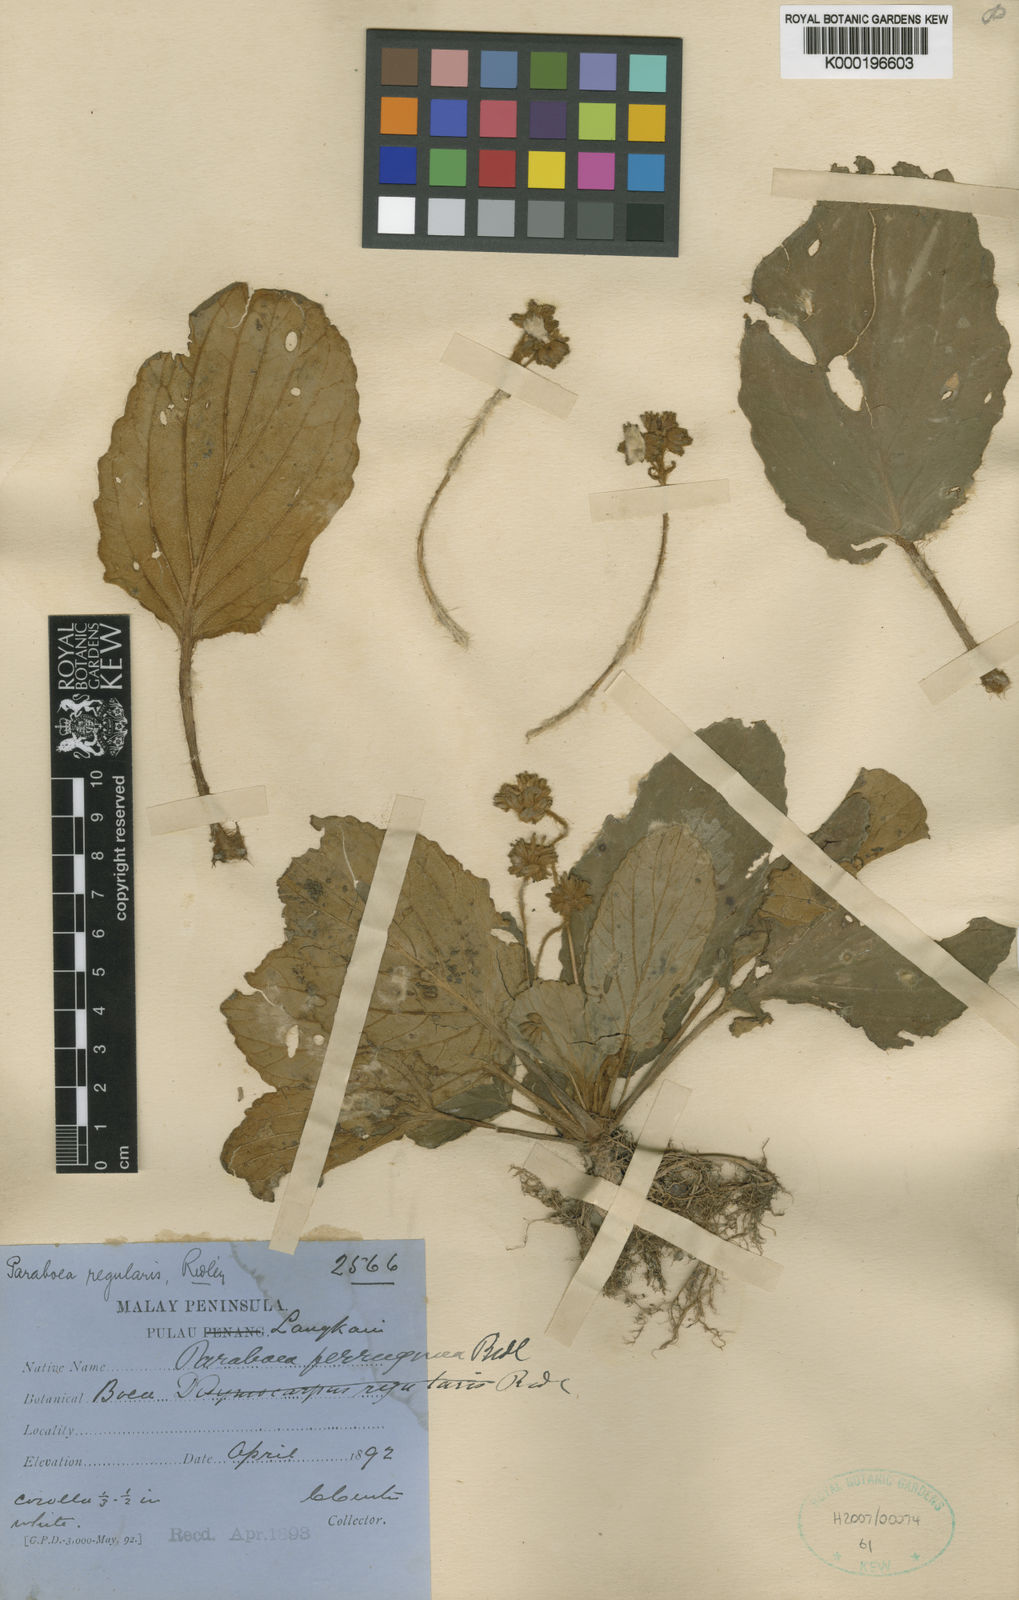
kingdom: Plantae
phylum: Tracheophyta
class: Magnoliopsida
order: Lamiales
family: Gesneriaceae
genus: Paraboea
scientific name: Paraboea ferruginea
